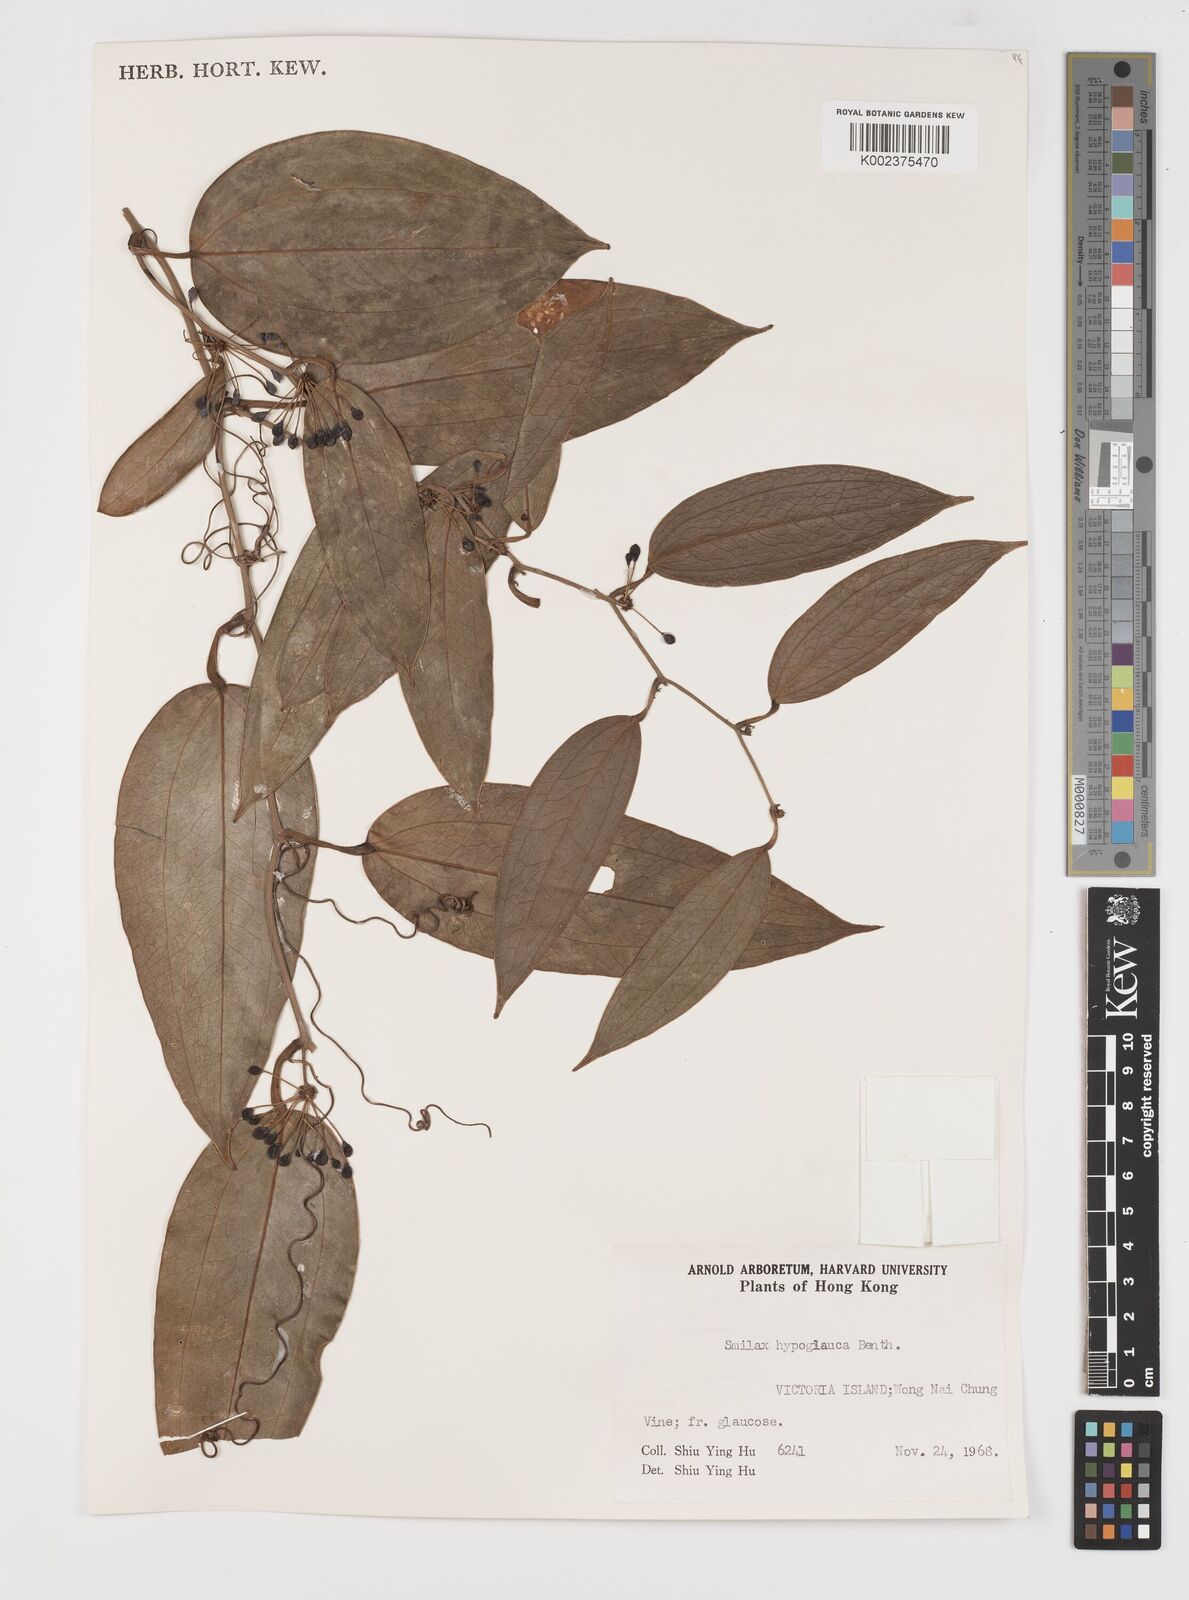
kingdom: Plantae
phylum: Tracheophyta
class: Liliopsida
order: Liliales
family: Smilacaceae
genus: Smilax
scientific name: Smilax hypoglauca
